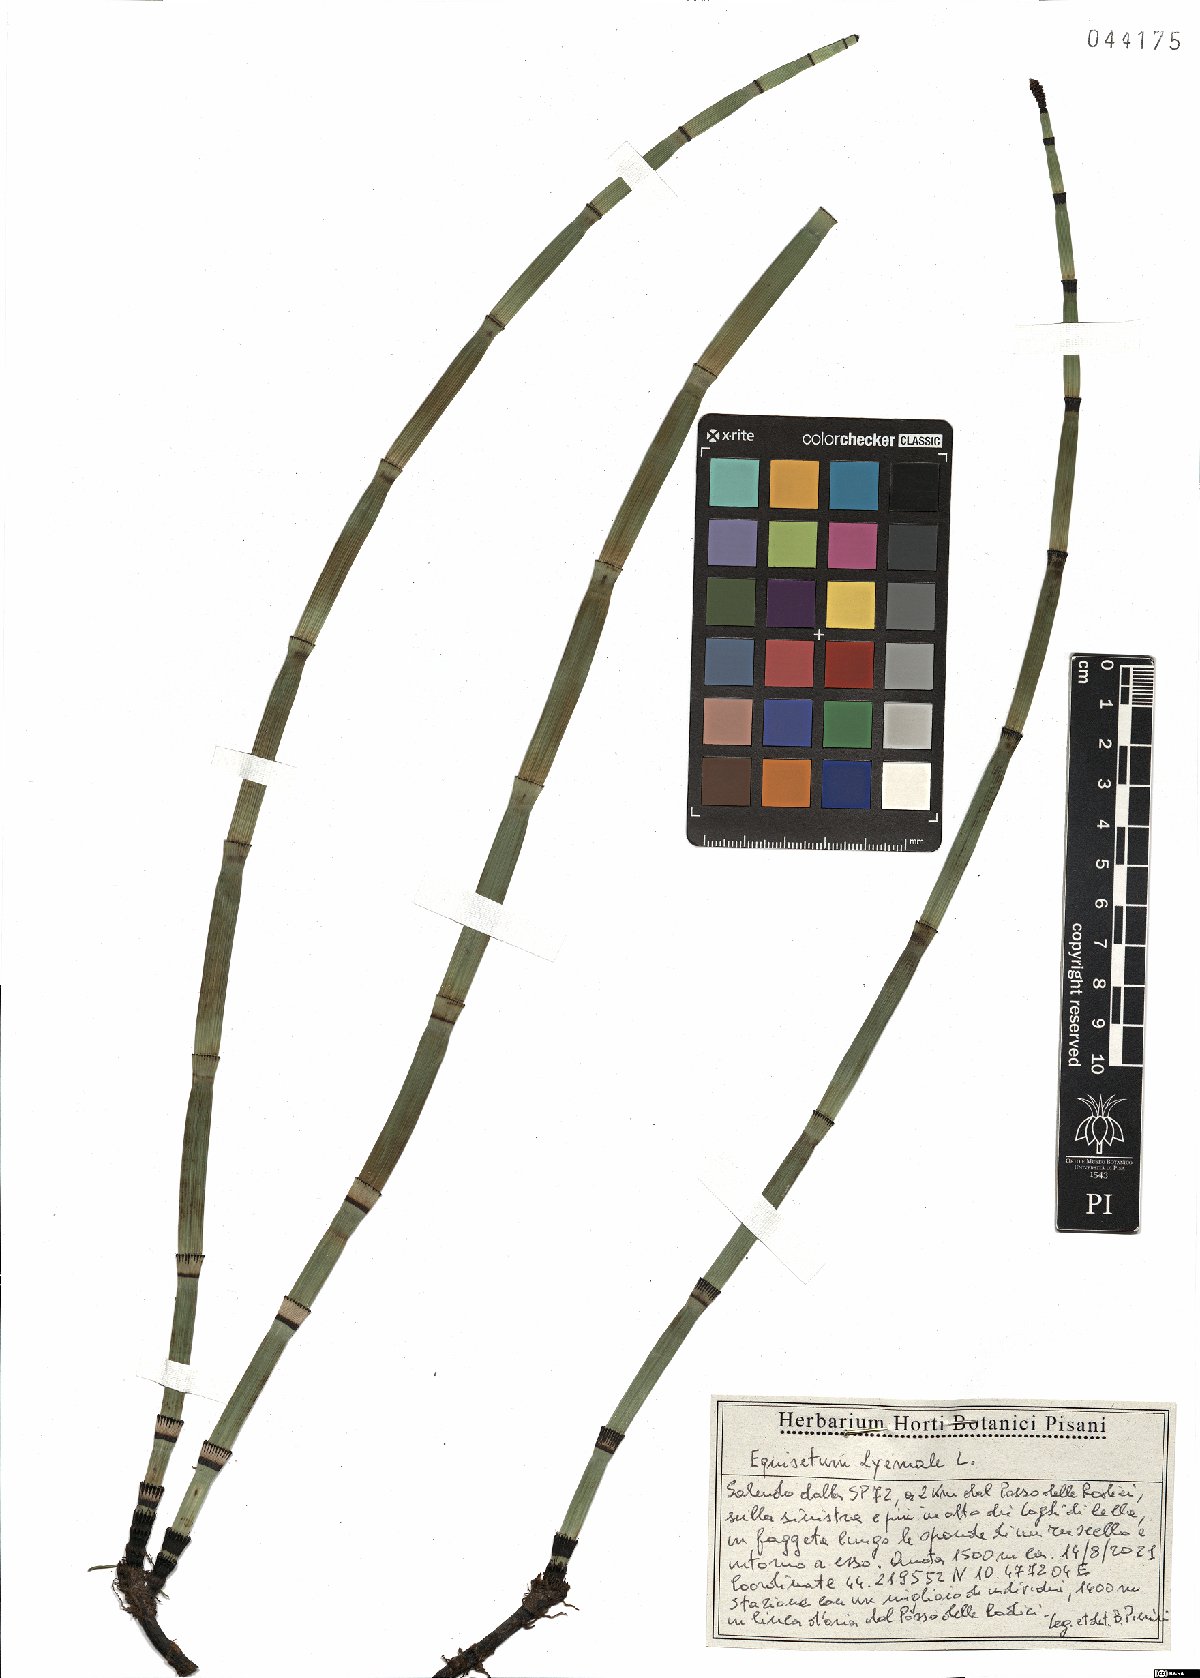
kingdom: Plantae
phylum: Tracheophyta
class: Polypodiopsida
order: Equisetales
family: Equisetaceae
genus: Equisetum
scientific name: Equisetum hyemale
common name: Rough horsetail
